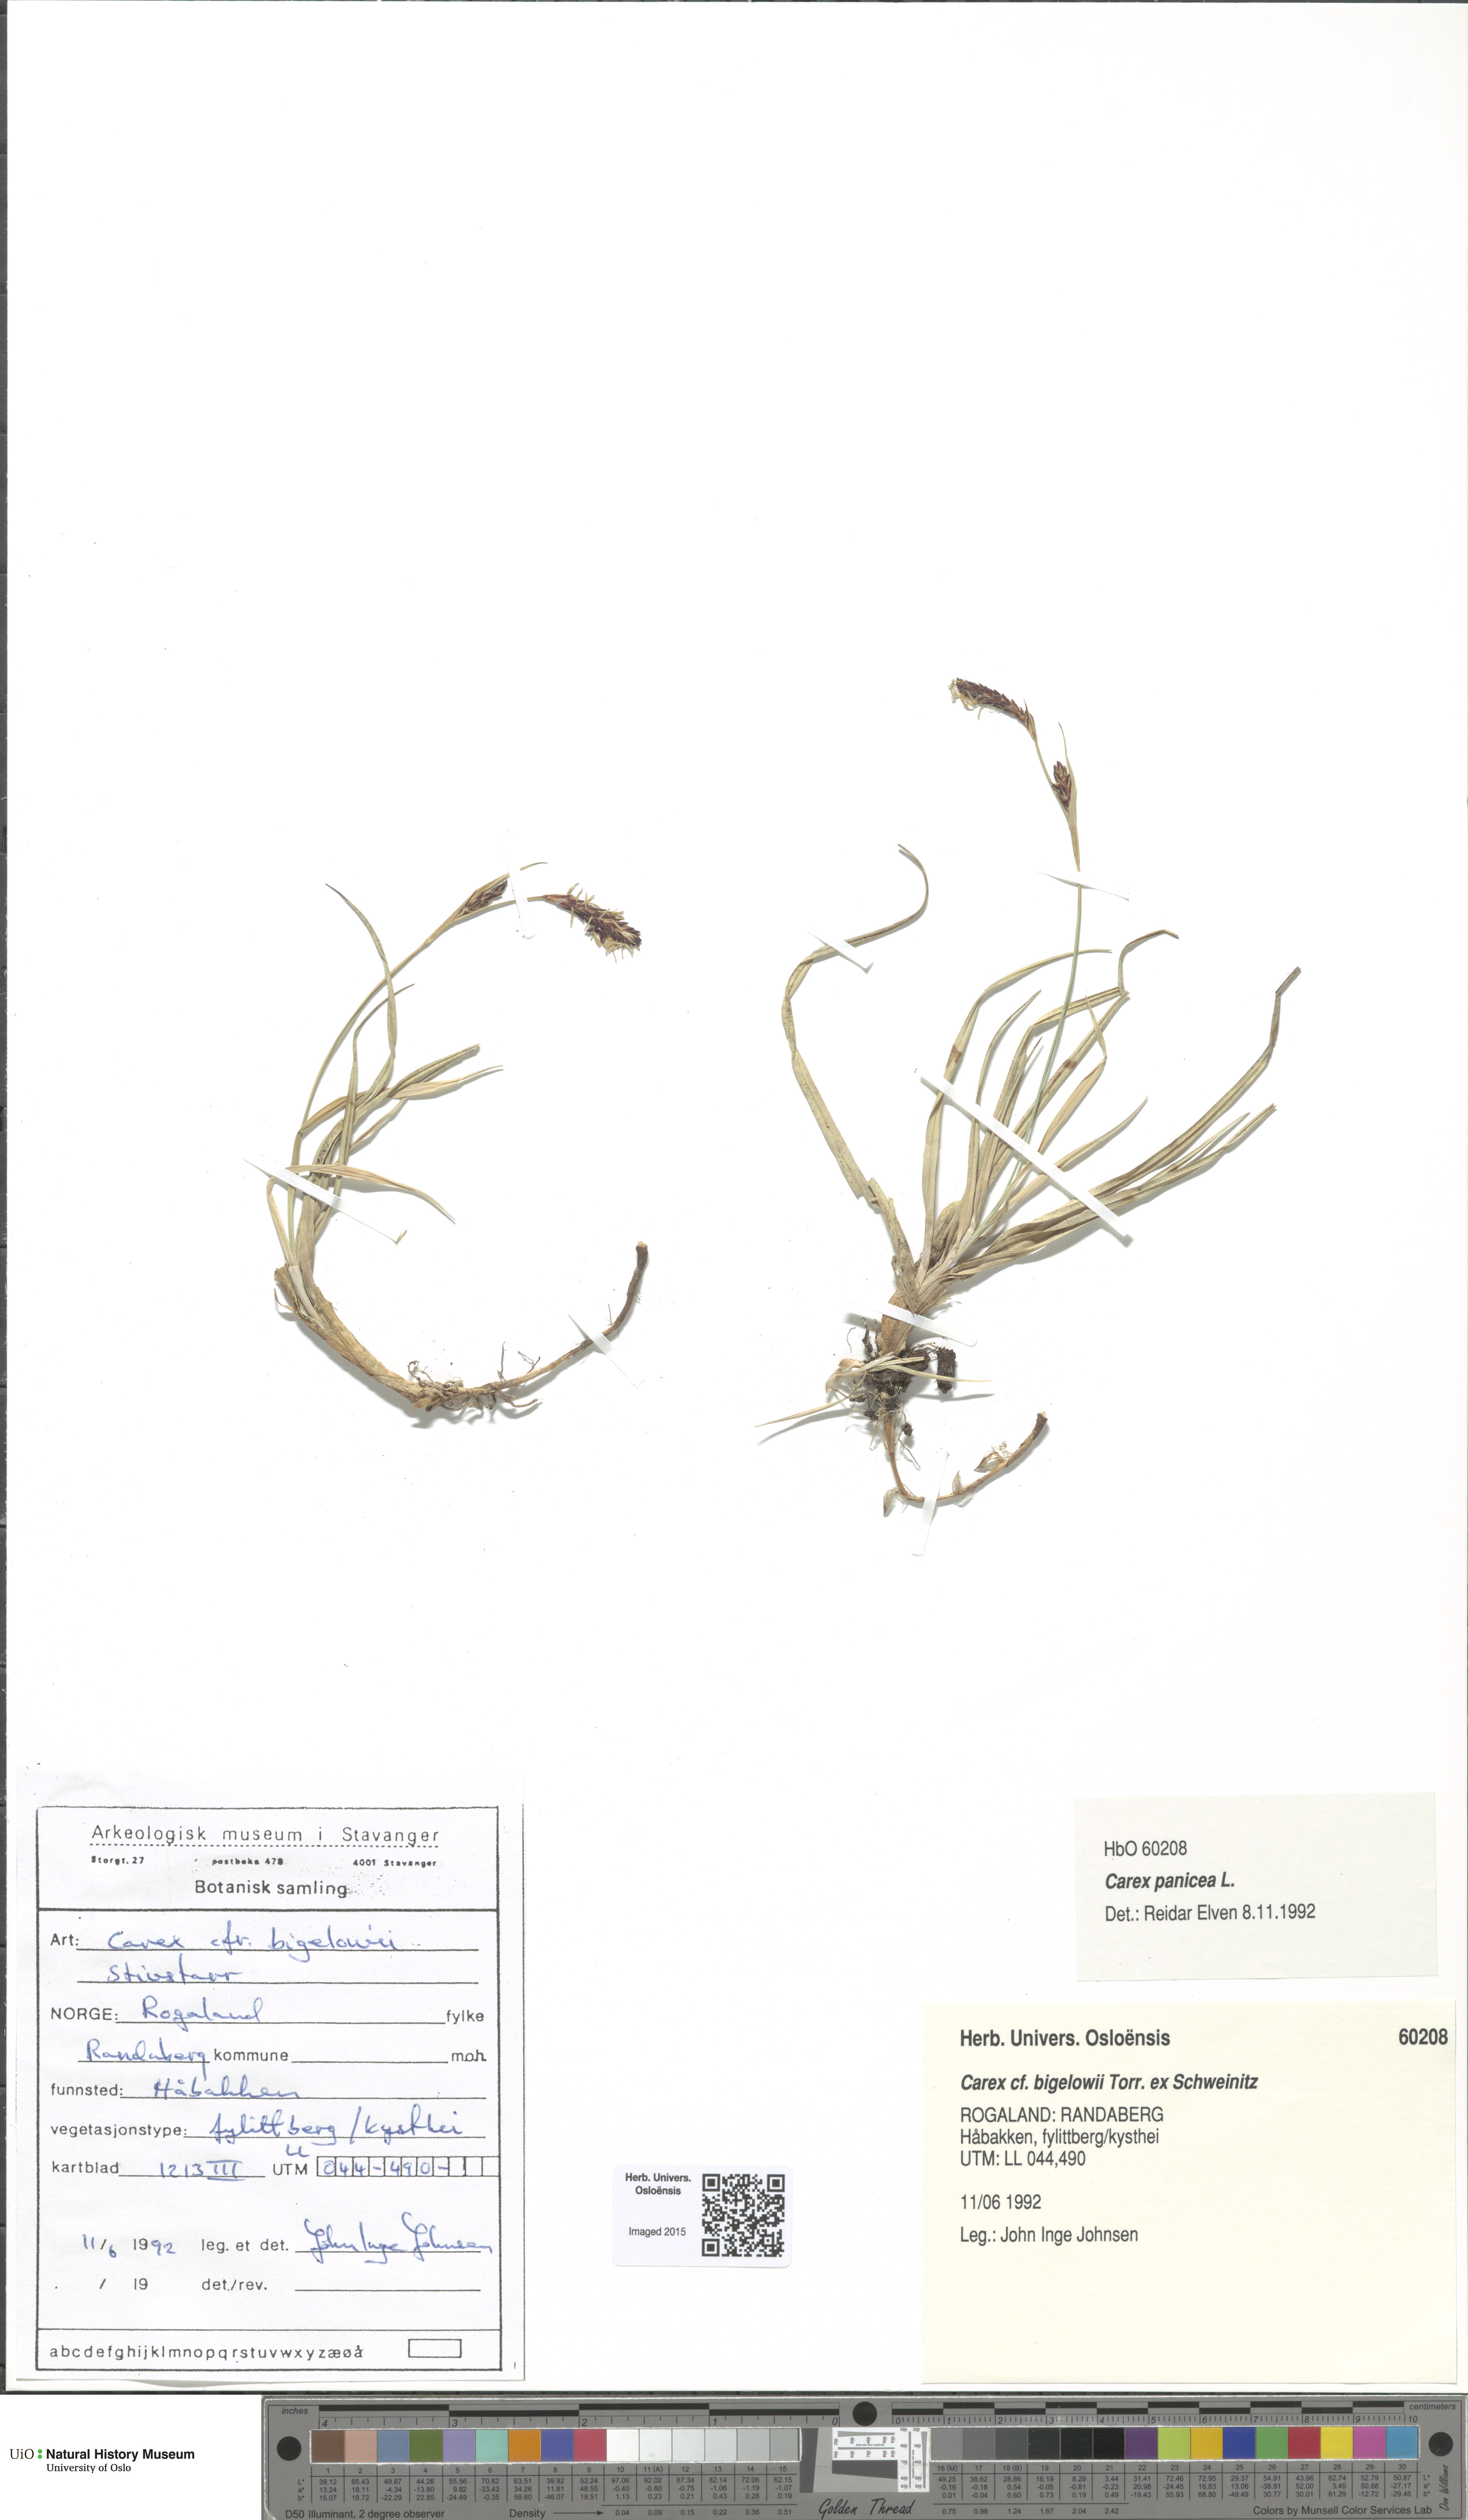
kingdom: Plantae
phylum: Tracheophyta
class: Liliopsida
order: Poales
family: Cyperaceae
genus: Carex
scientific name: Carex panicea
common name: Carnation sedge
